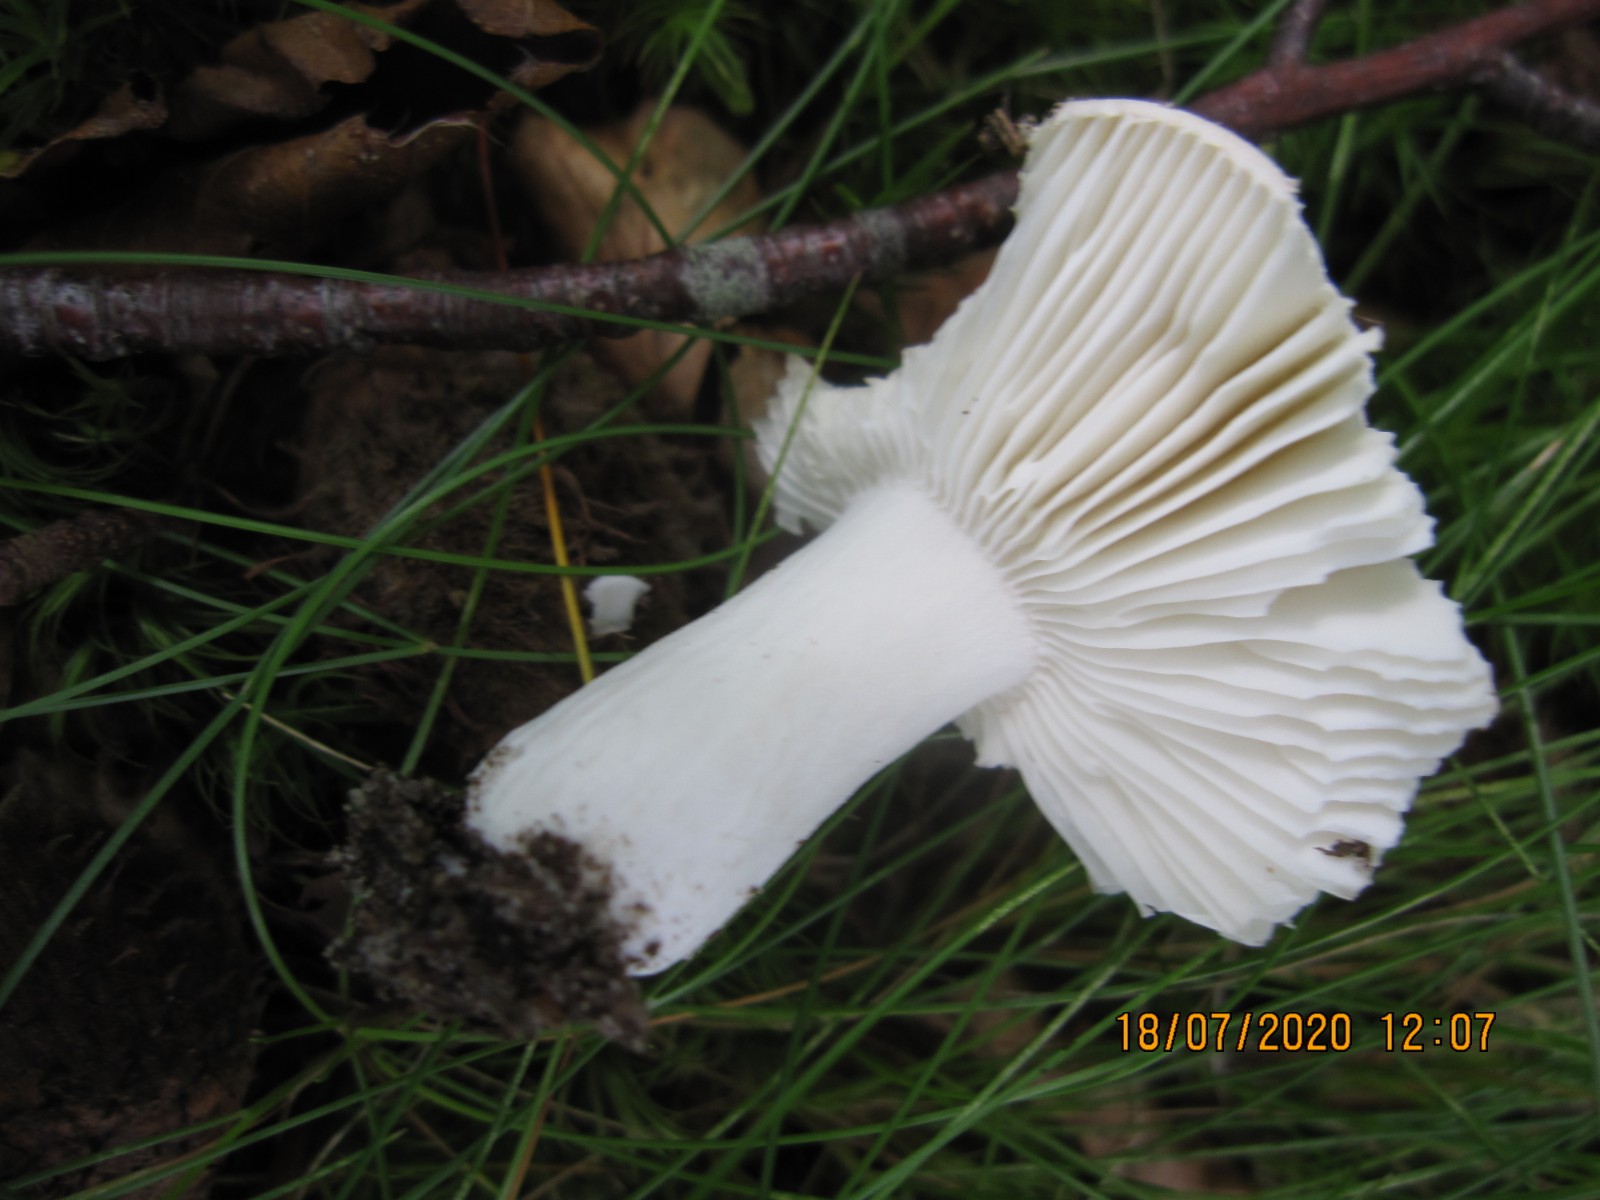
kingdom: Fungi
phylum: Basidiomycota
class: Agaricomycetes
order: Russulales
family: Russulaceae
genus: Russula
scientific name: Russula roseoaurantia
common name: kornet skørhat
